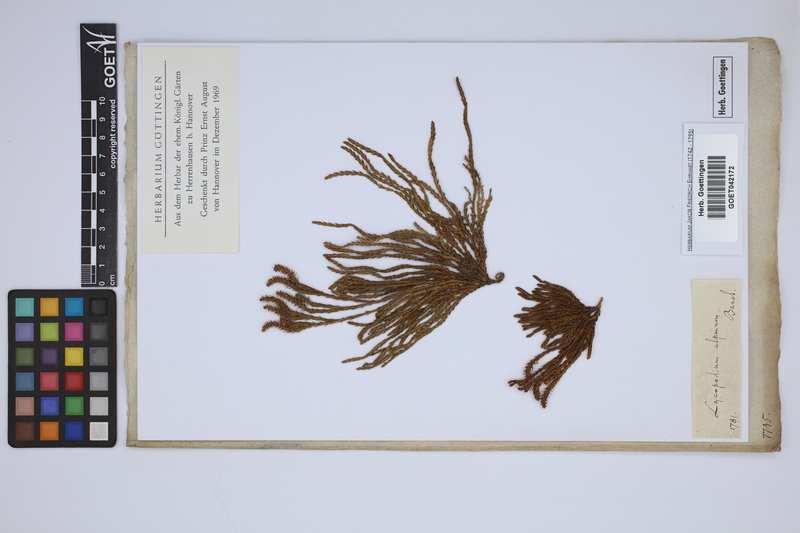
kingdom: Plantae
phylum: Tracheophyta
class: Lycopodiopsida
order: Lycopodiales
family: Lycopodiaceae
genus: Diphasiastrum
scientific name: Diphasiastrum alpinum
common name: Alpine clubmoss
